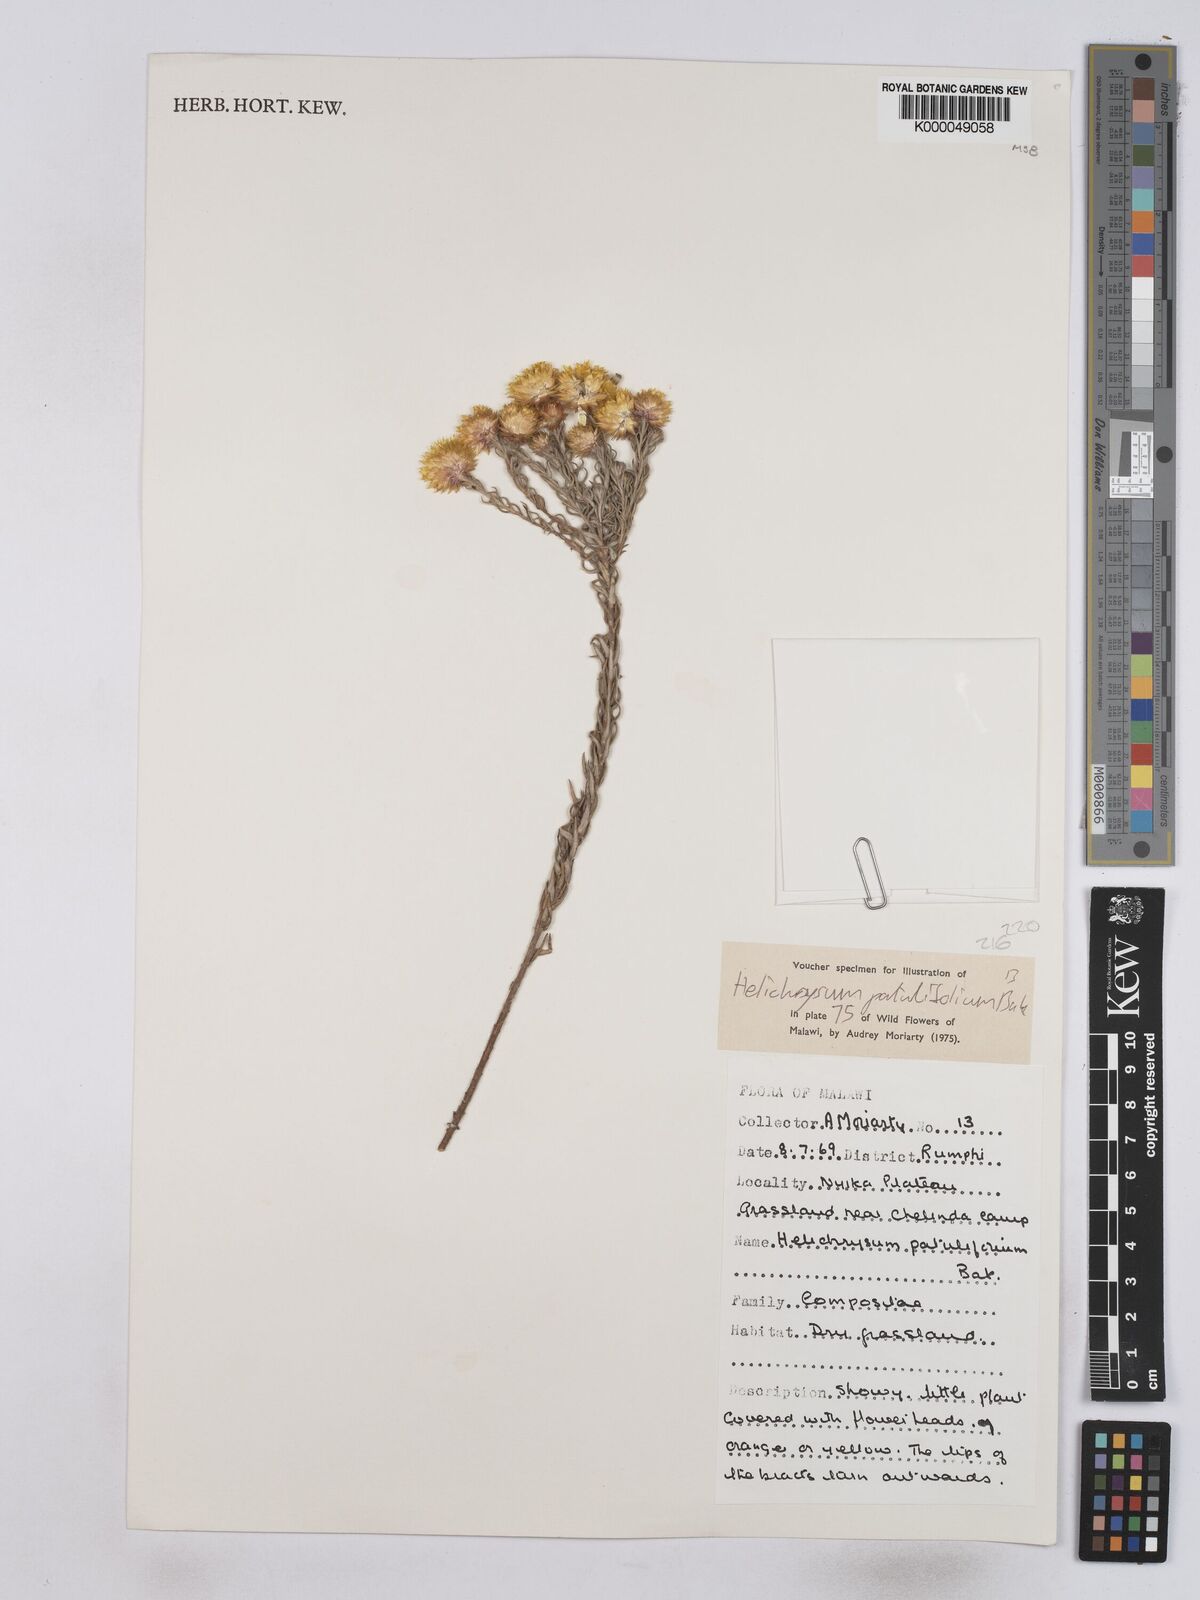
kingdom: Plantae
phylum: Tracheophyta
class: Magnoliopsida
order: Asterales
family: Asteraceae
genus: Helichrysum
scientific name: Helichrysum patulifolium
